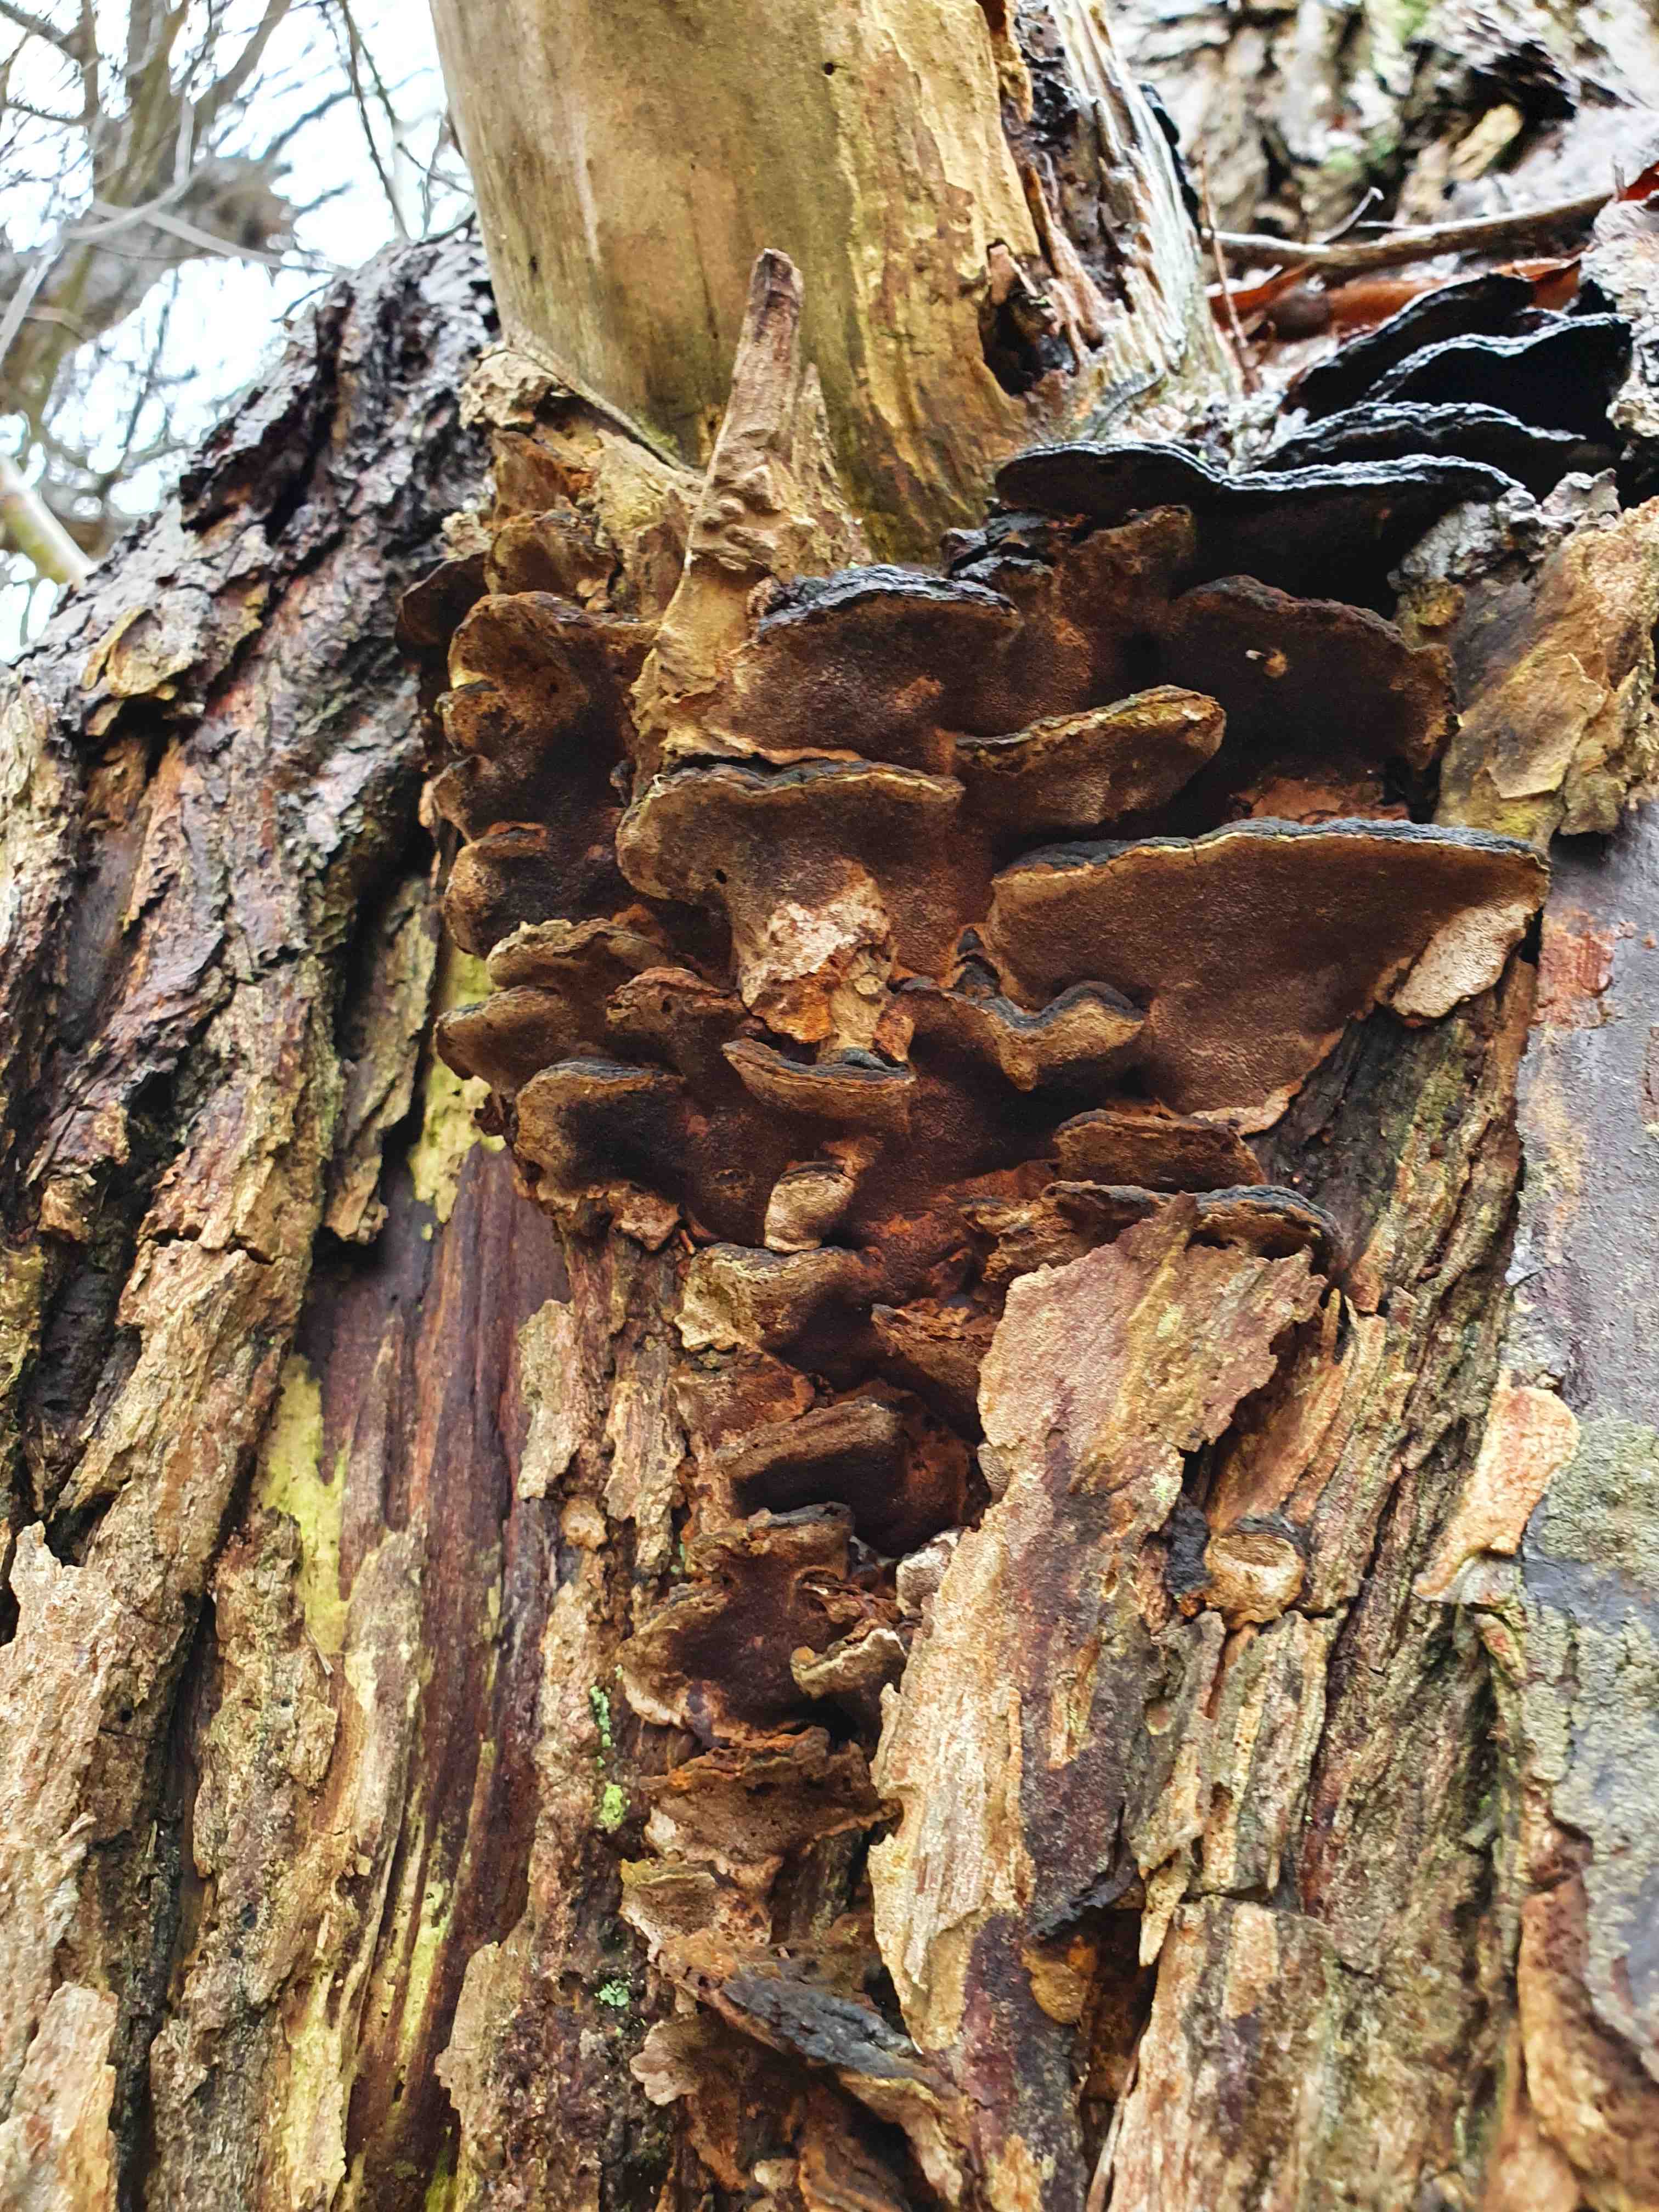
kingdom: Fungi
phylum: Basidiomycota
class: Agaricomycetes
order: Hymenochaetales
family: Hymenochaetaceae
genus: Phellinopsis
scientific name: Phellinopsis conchata
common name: pile-ildporesvamp
